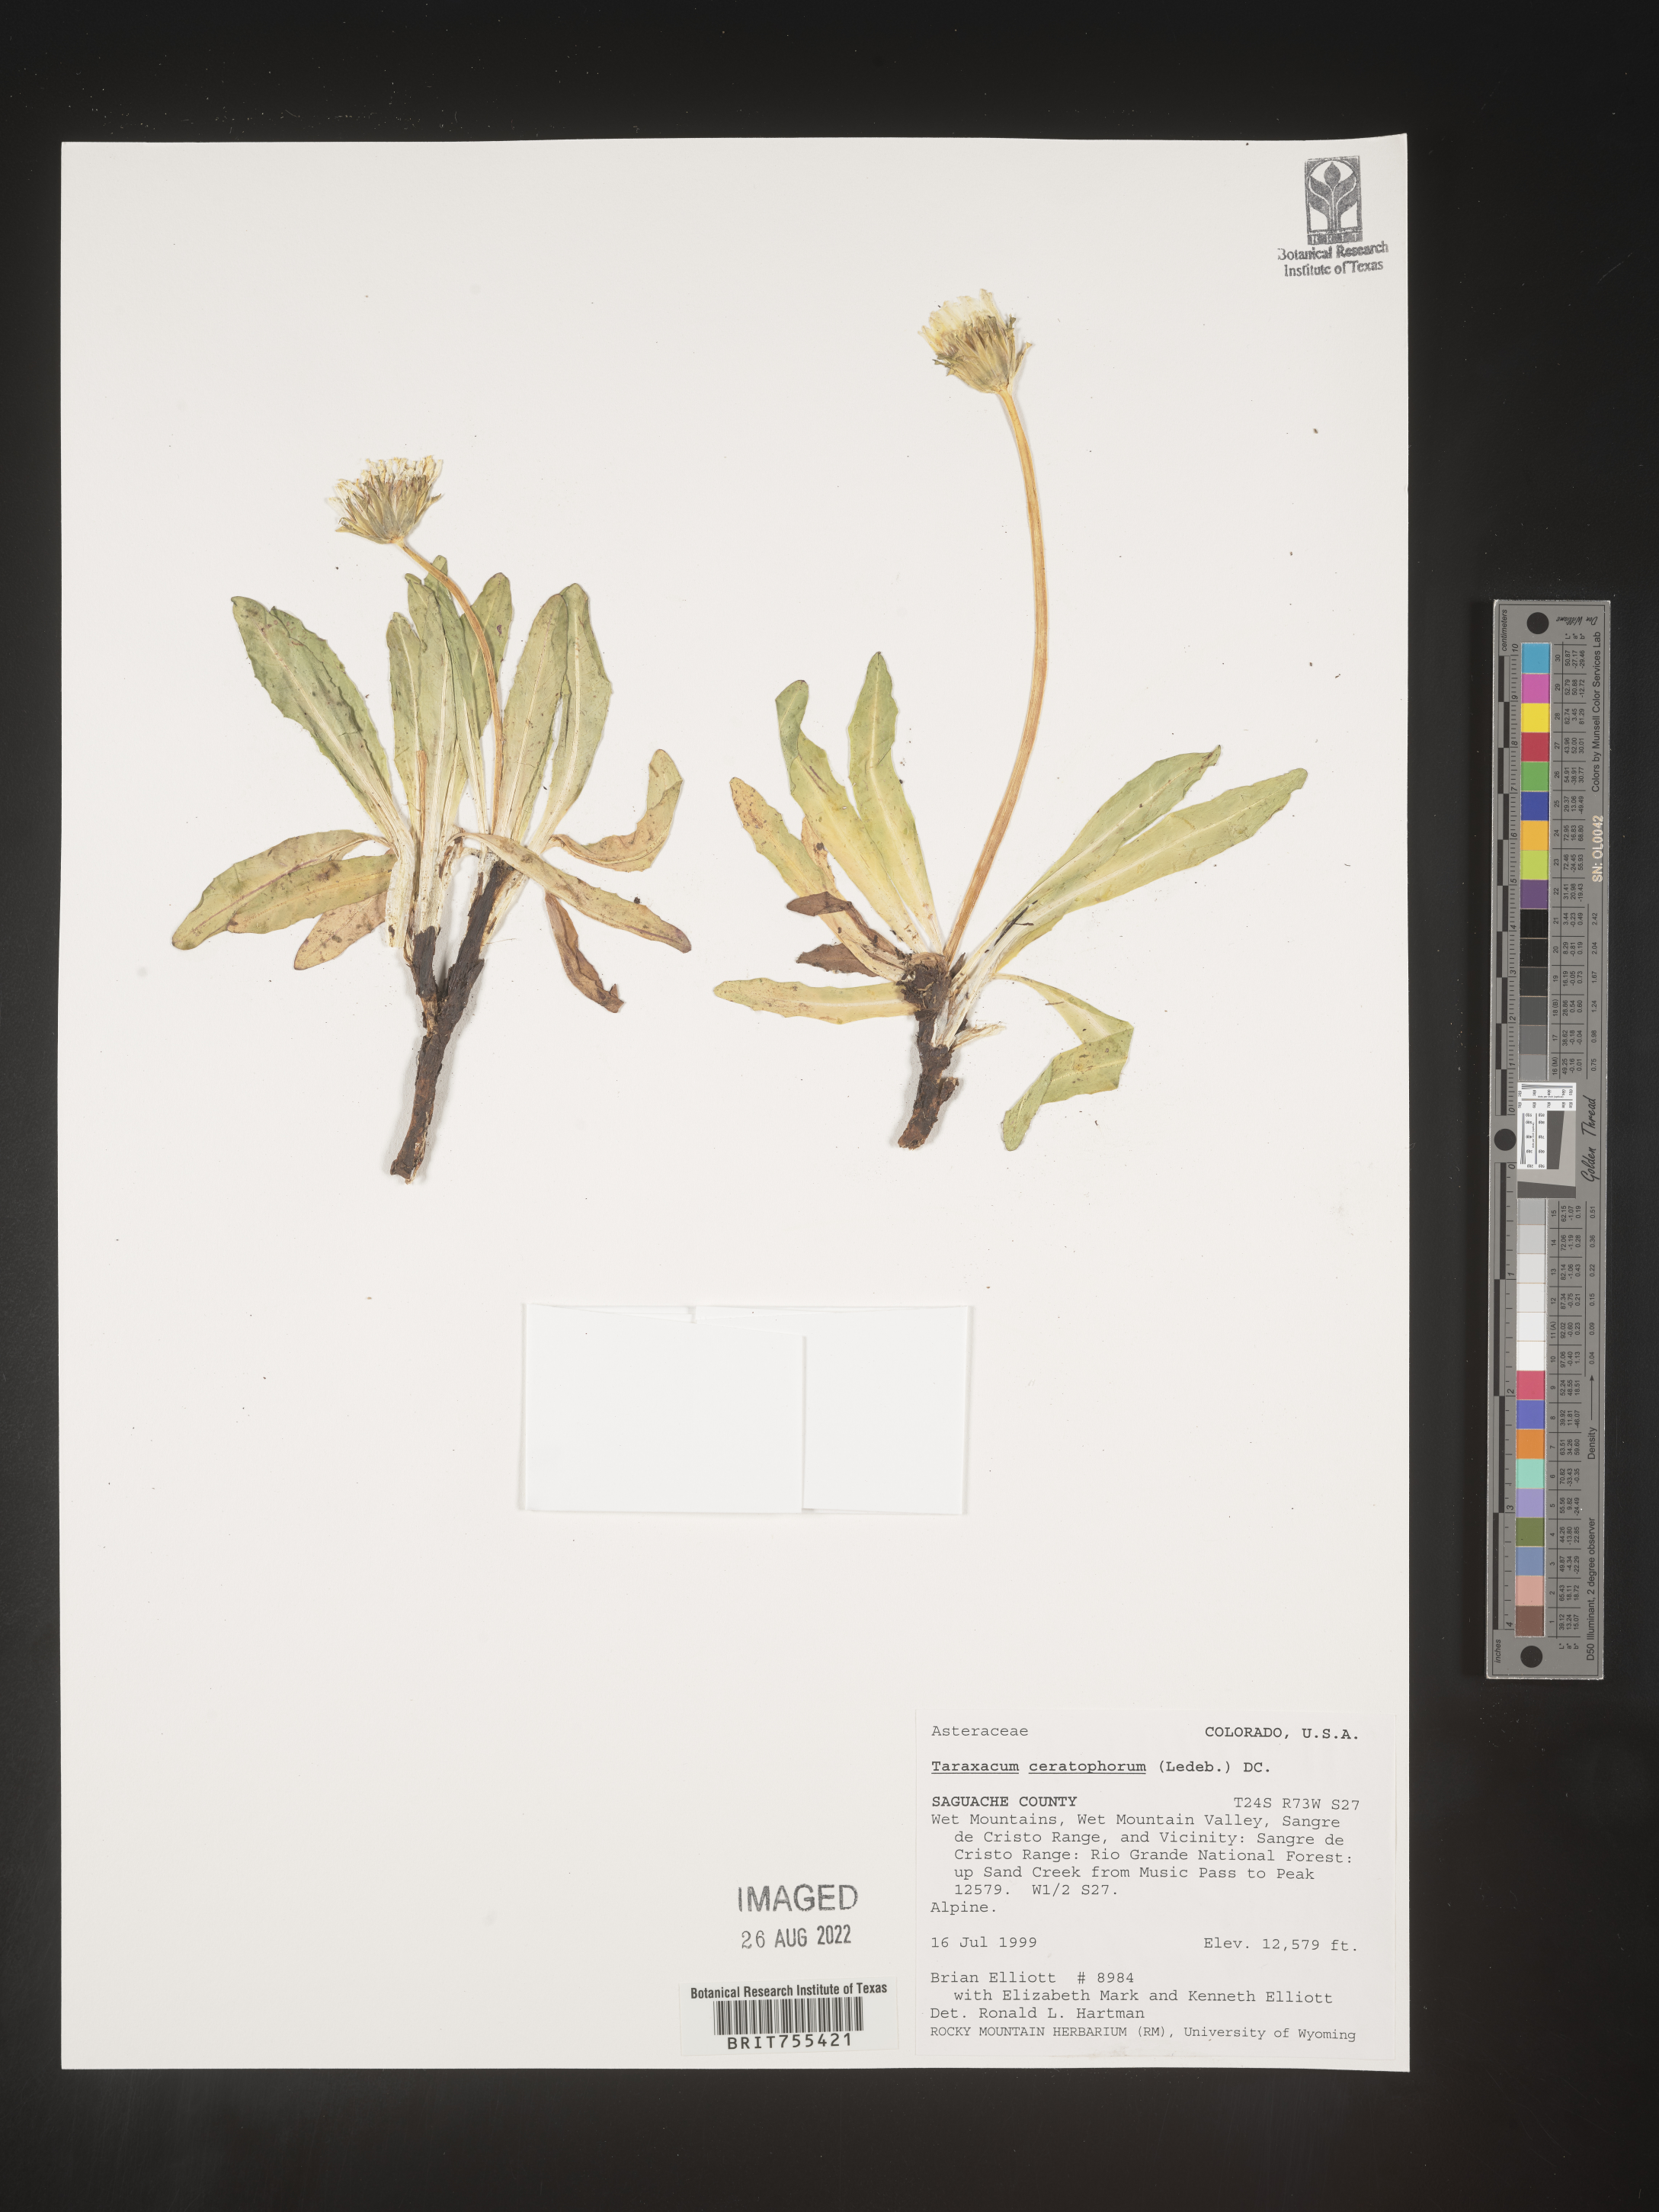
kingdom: Plantae
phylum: Tracheophyta
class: Magnoliopsida
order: Asterales
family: Asteraceae
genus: Taraxacum
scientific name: Taraxacum
